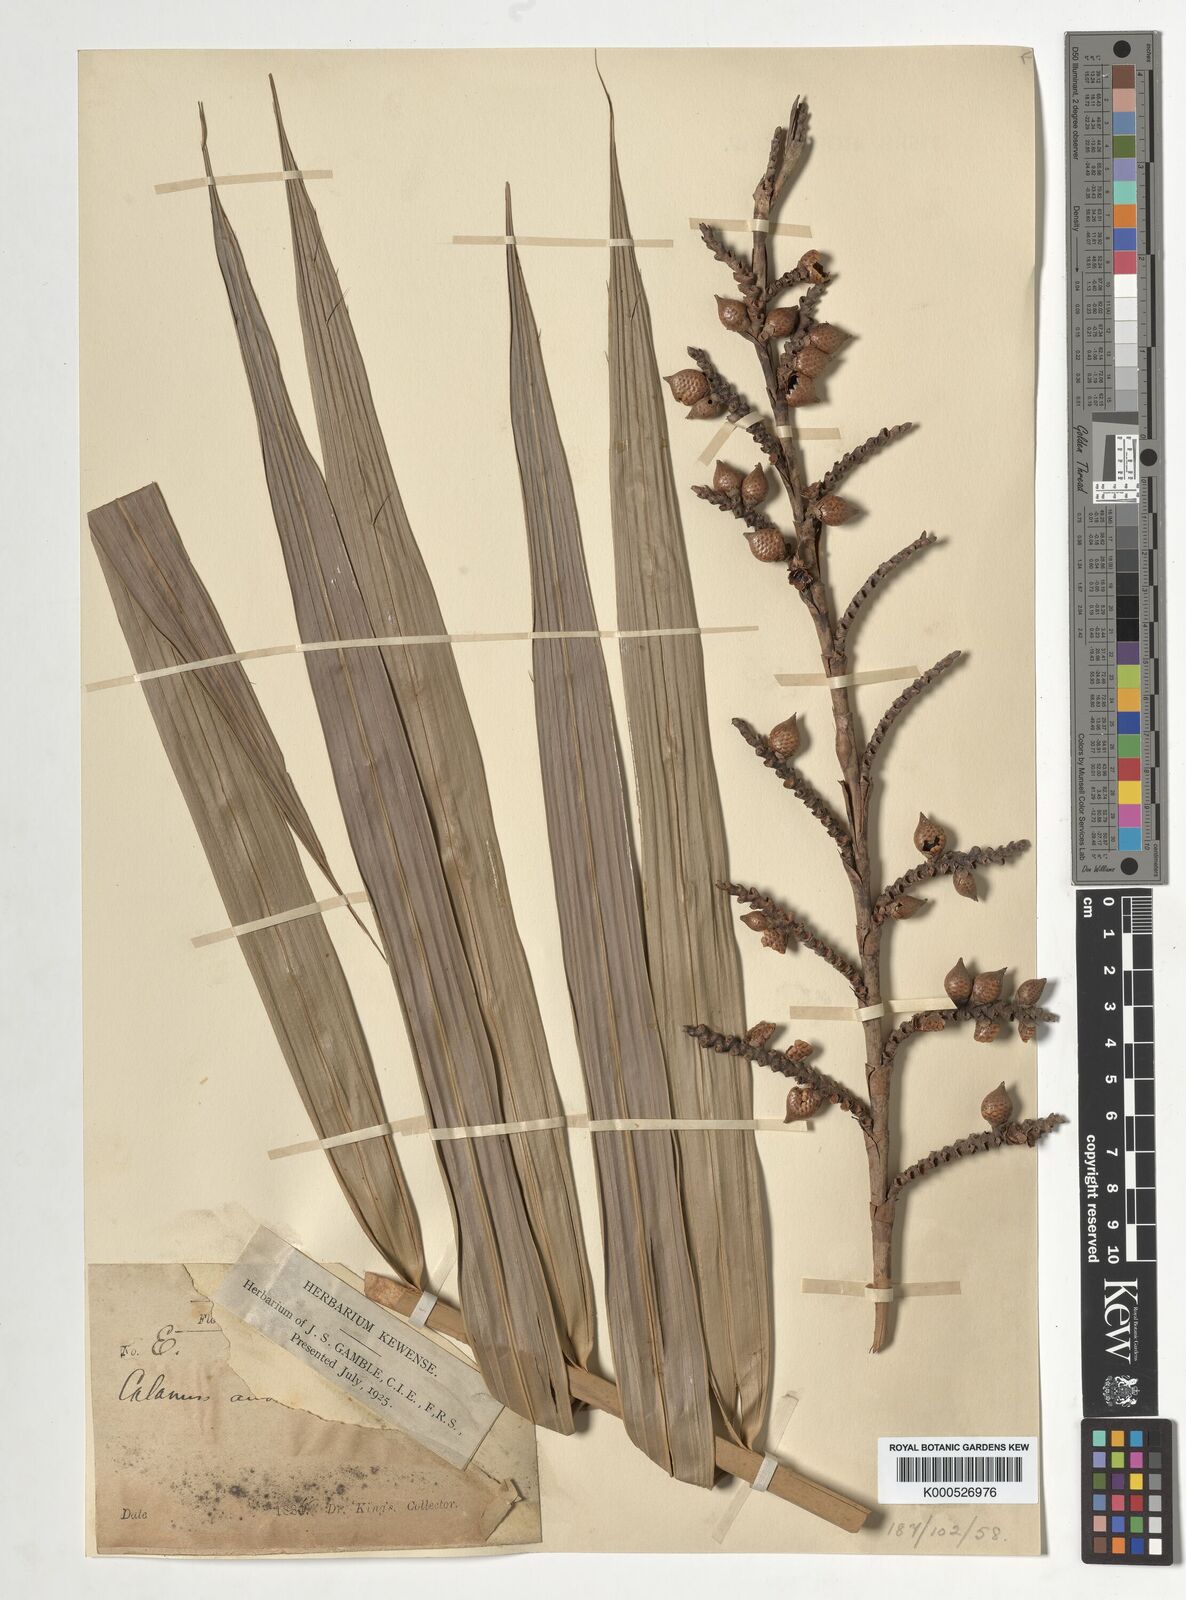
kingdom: Plantae
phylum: Tracheophyta
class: Liliopsida
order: Arecales
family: Arecaceae
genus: Calamus
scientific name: Calamus andamanicus
